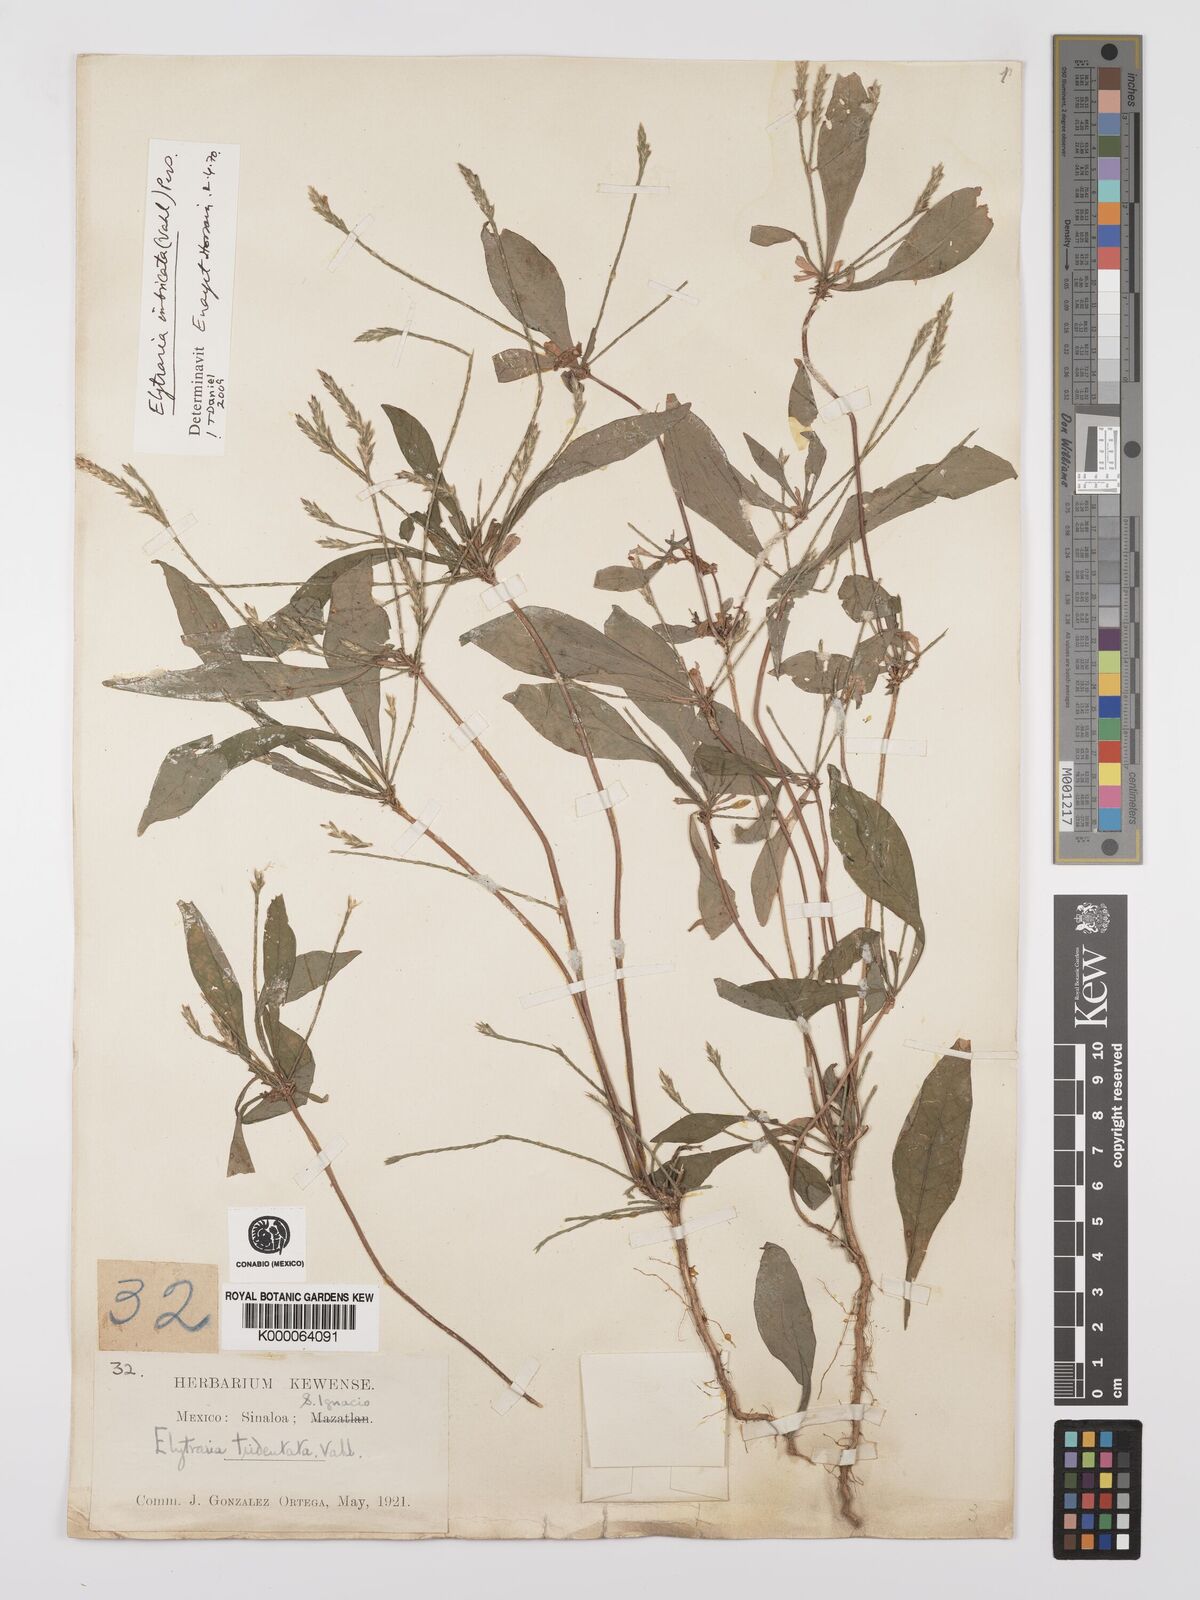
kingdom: Plantae
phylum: Tracheophyta
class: Magnoliopsida
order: Lamiales
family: Acanthaceae
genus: Elytraria
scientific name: Elytraria imbricata
